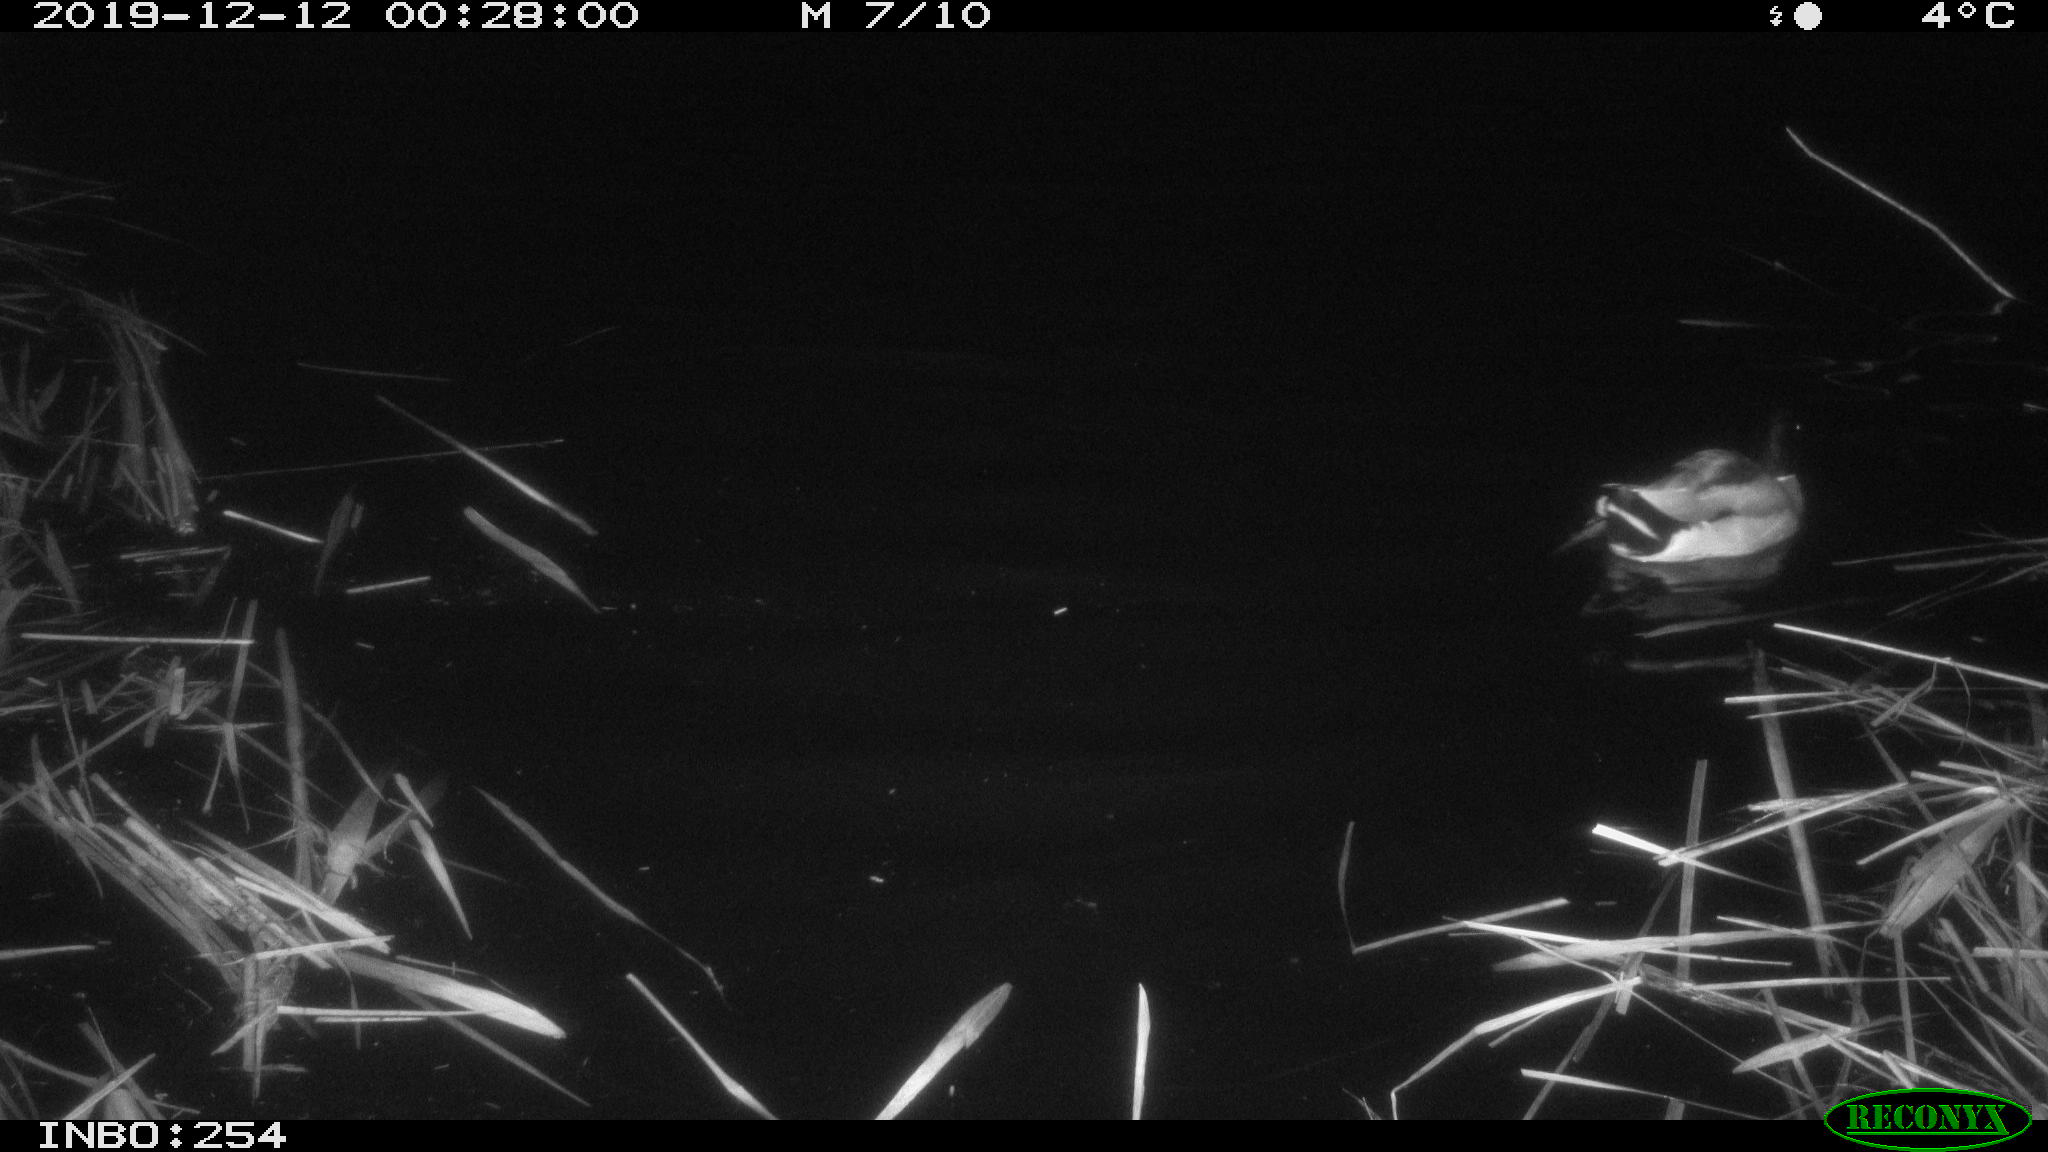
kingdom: Animalia
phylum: Chordata
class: Aves
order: Anseriformes
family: Anatidae
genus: Anas
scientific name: Anas platyrhynchos
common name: Mallard
